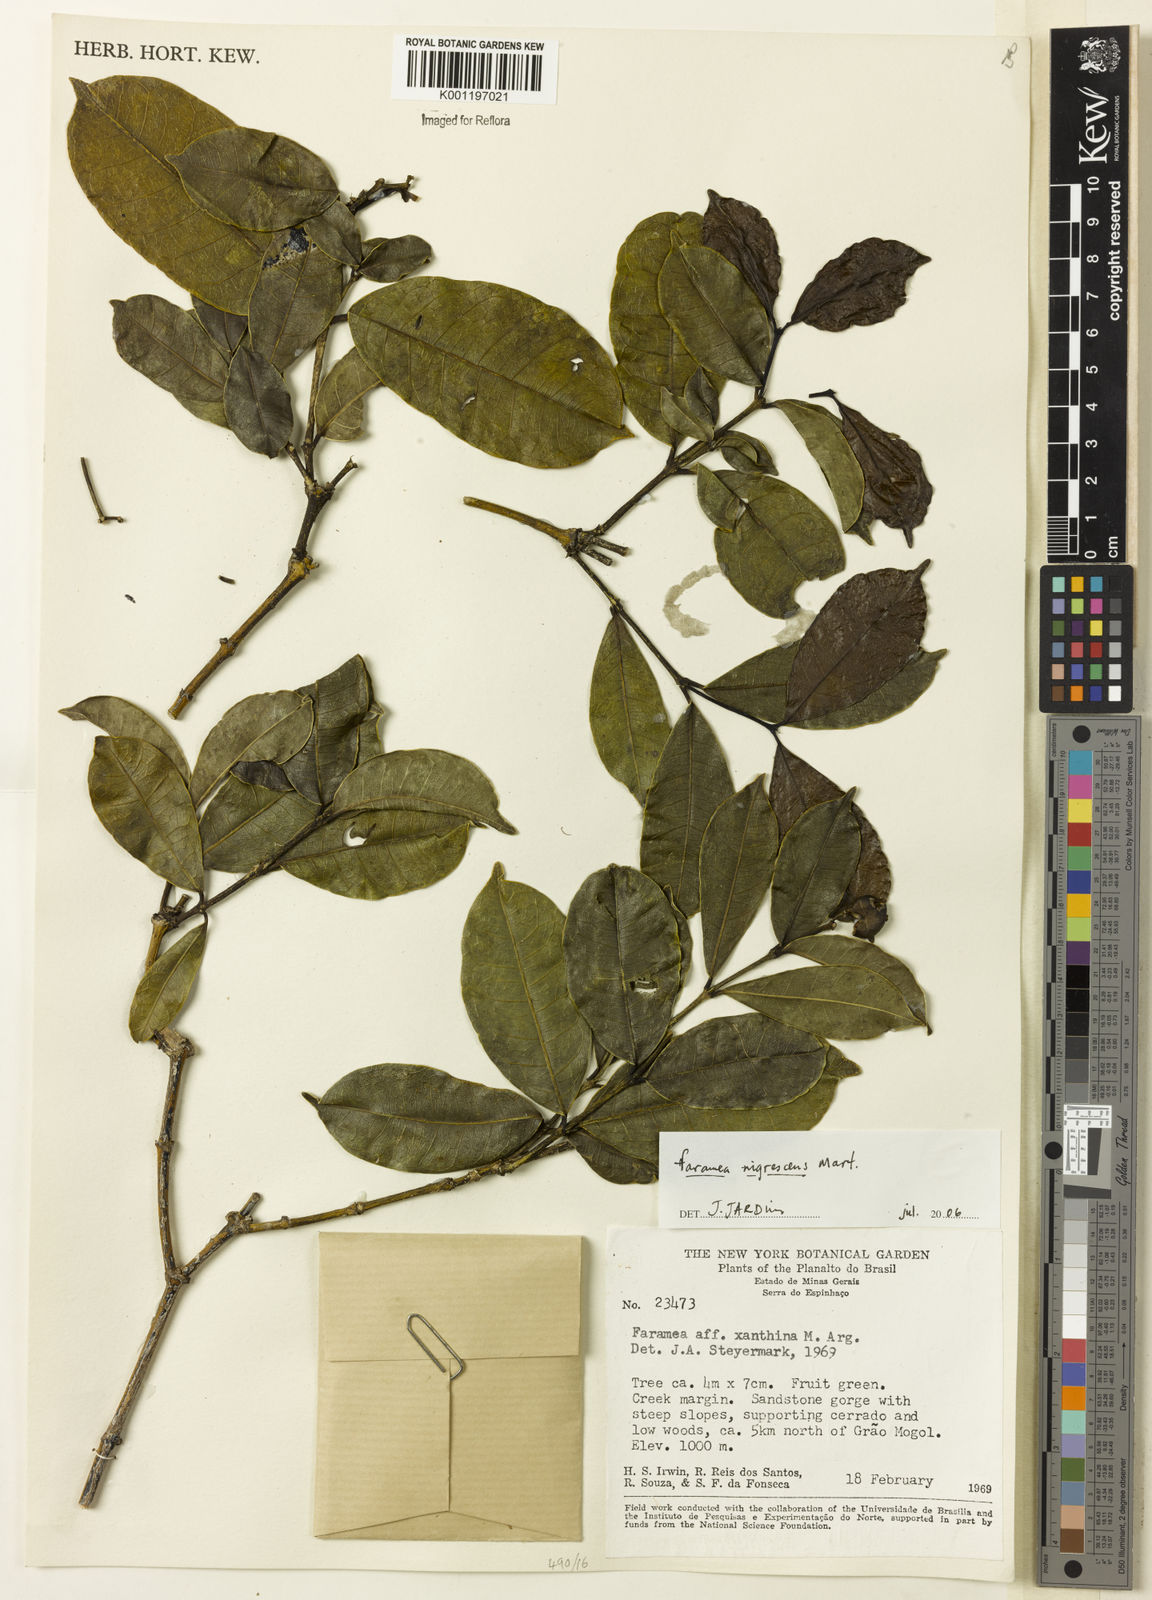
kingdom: Plantae
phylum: Tracheophyta
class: Magnoliopsida
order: Gentianales
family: Rubiaceae
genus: Faramea
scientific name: Faramea nigrescens
